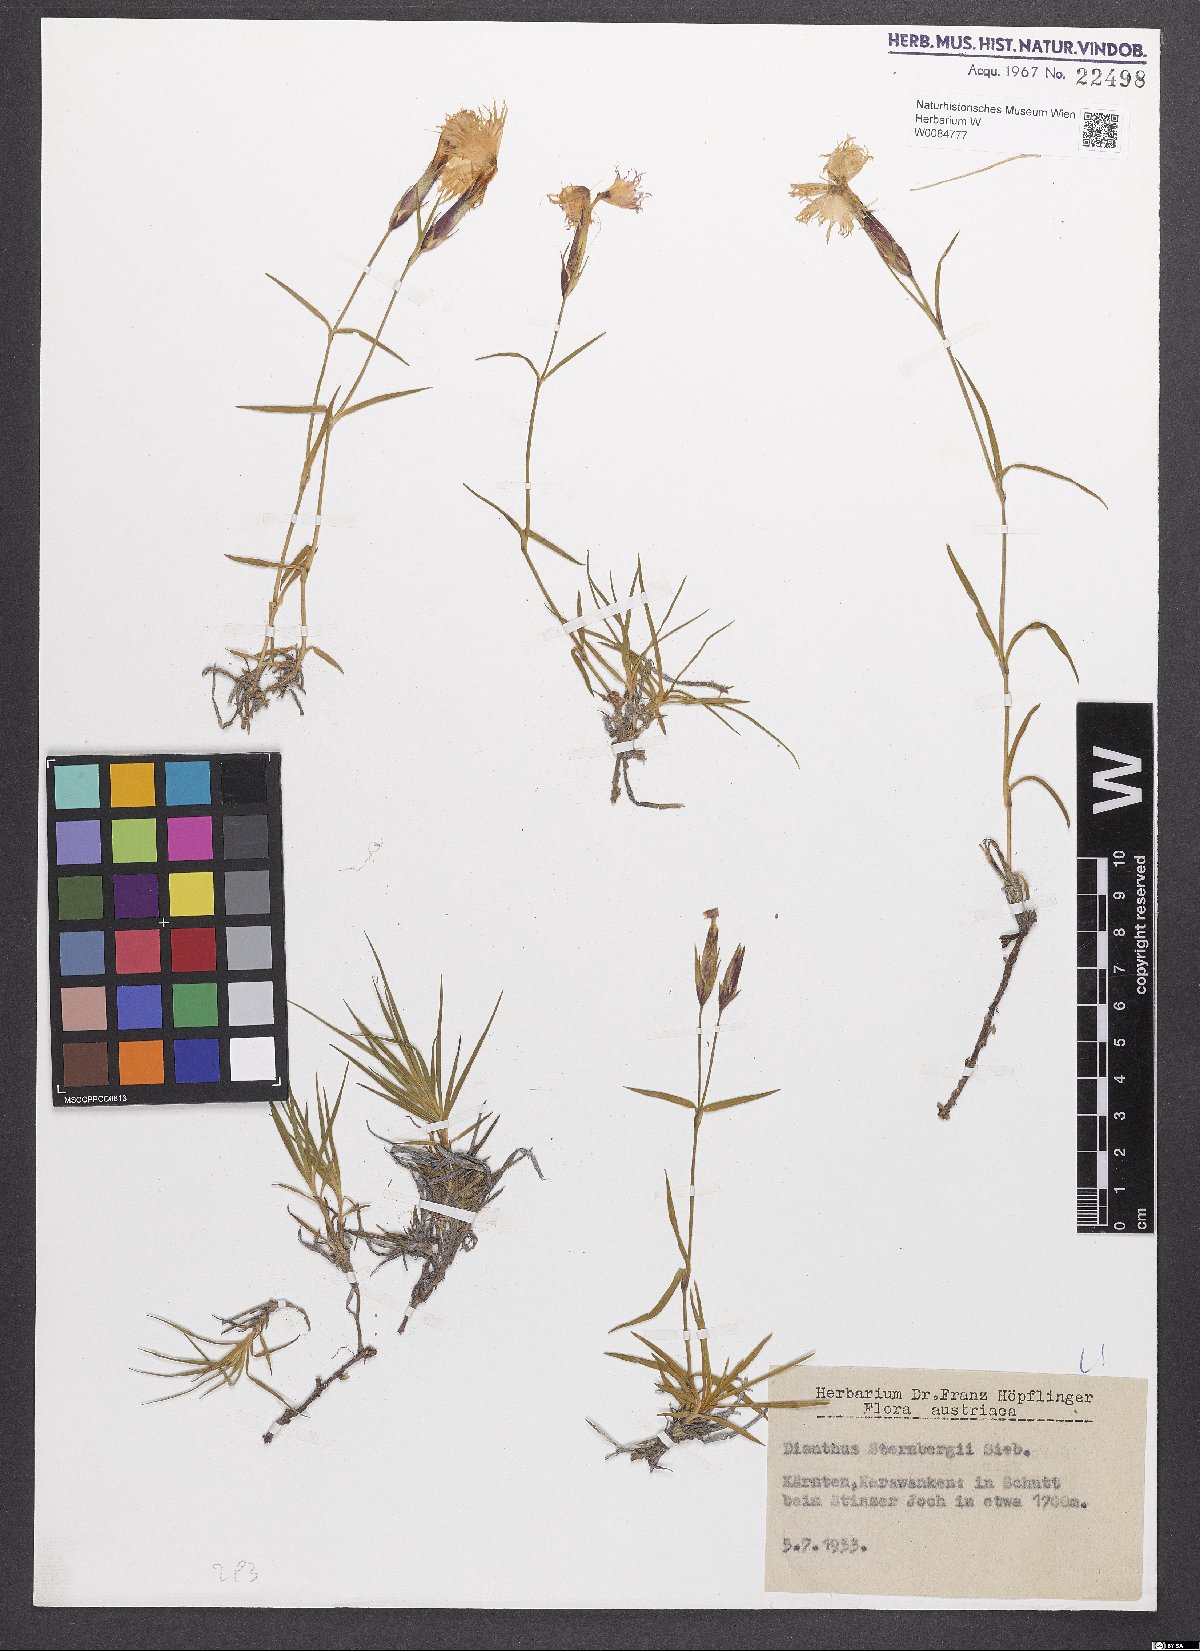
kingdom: Plantae
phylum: Tracheophyta
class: Magnoliopsida
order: Caryophyllales
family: Caryophyllaceae
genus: Dianthus
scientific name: Dianthus monspessulanus
